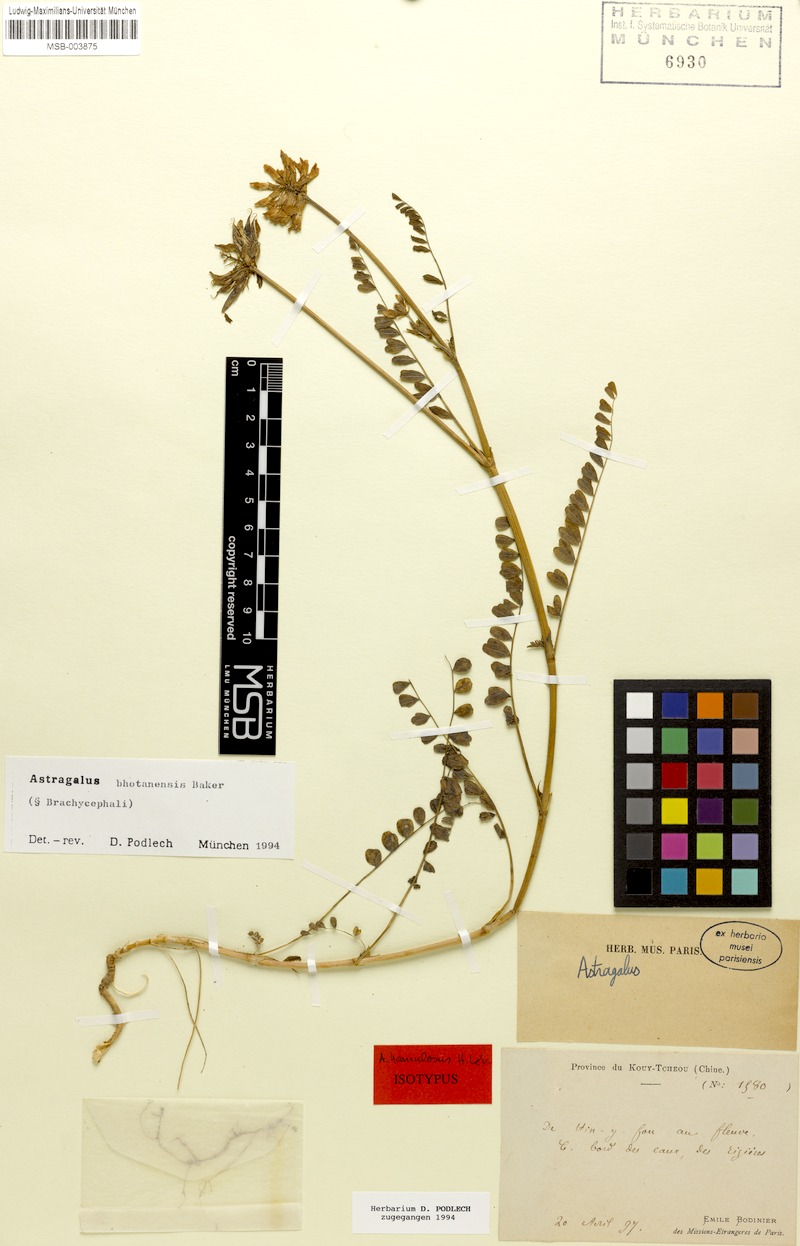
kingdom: Plantae
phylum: Tracheophyta
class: Magnoliopsida
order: Fabales
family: Fabaceae
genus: Astragalus
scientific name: Astragalus bhotanensis
